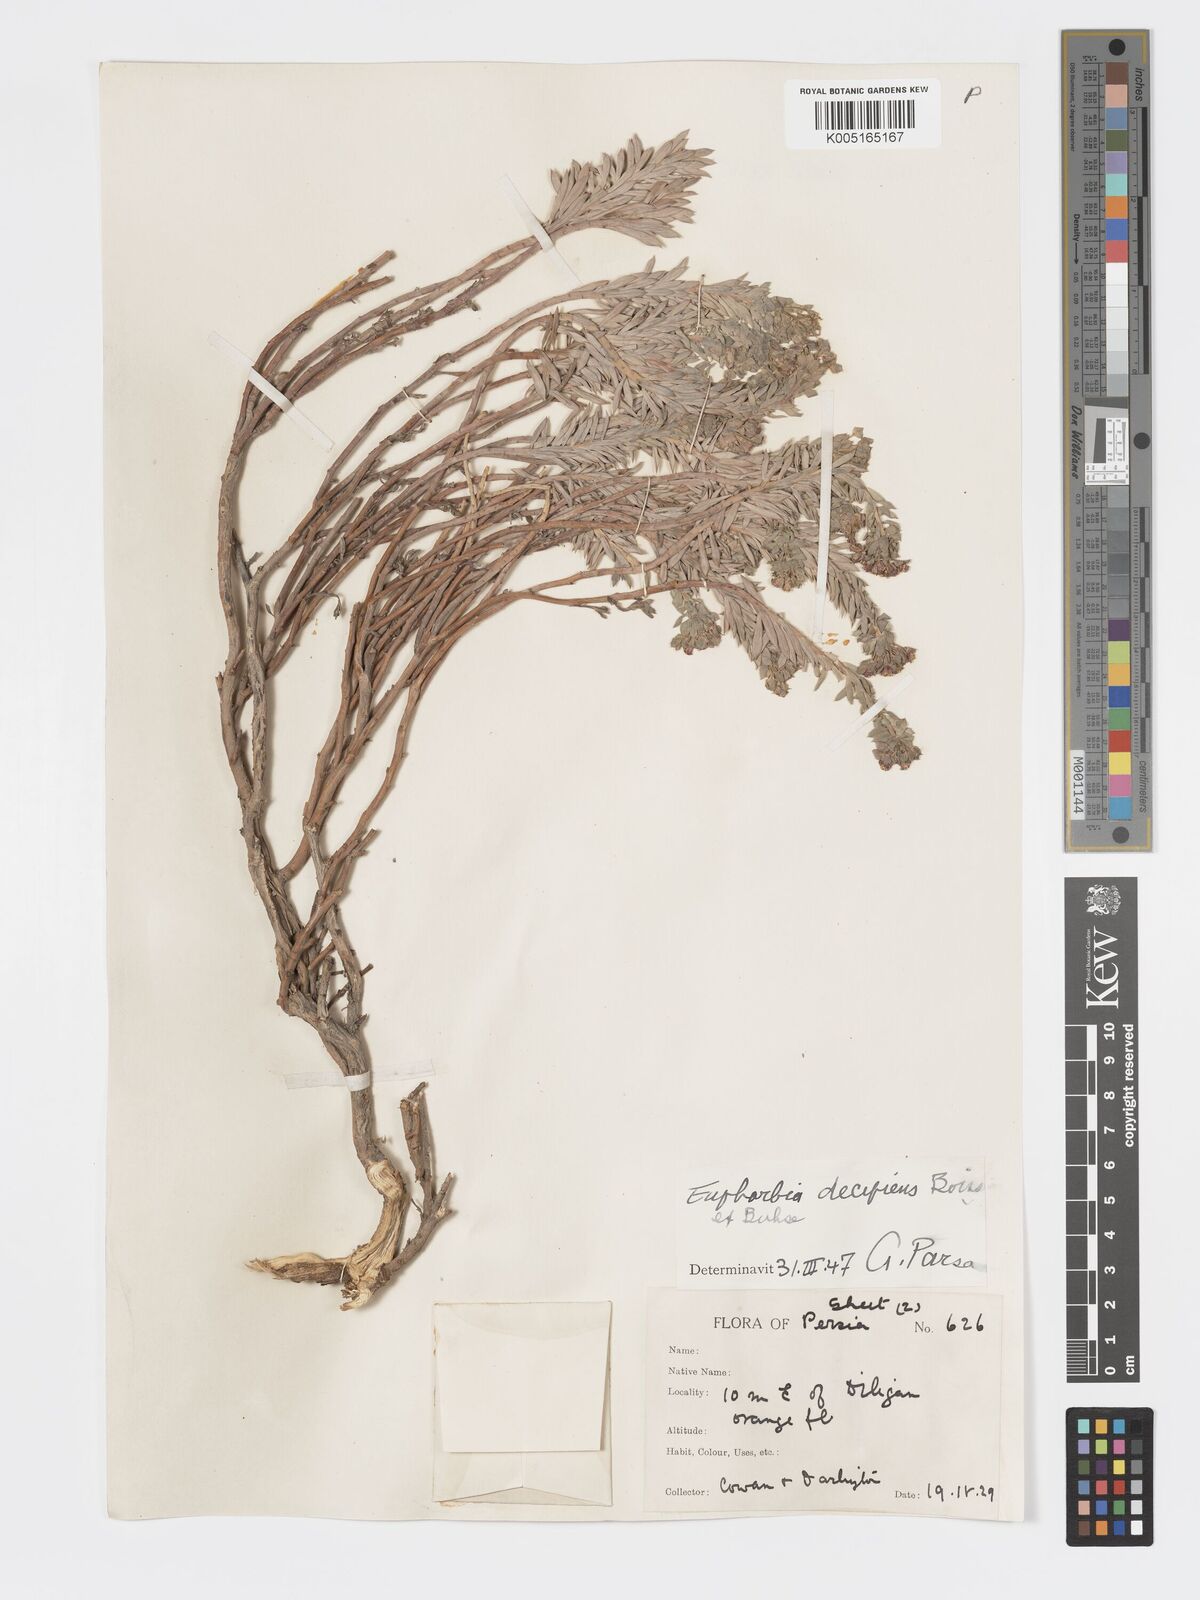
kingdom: Plantae
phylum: Tracheophyta
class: Magnoliopsida
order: Malpighiales
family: Euphorbiaceae
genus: Euphorbia
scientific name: Euphorbia polycaulis
